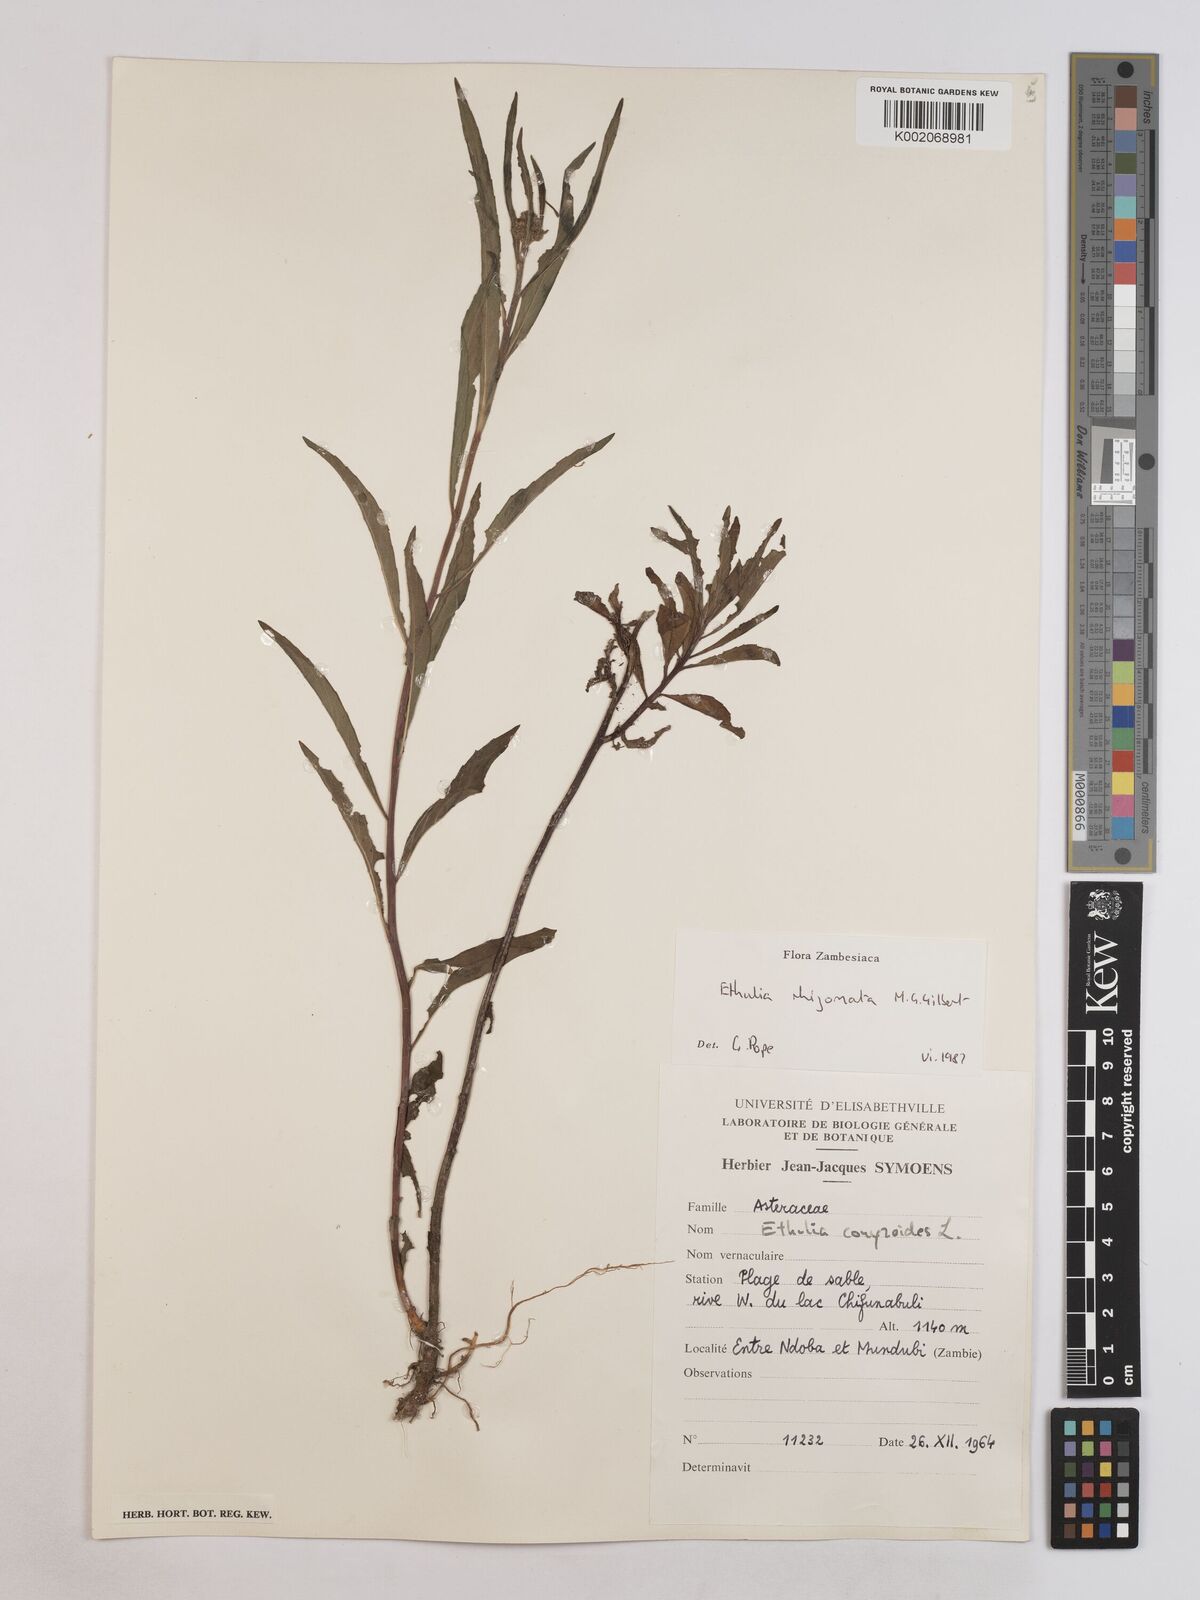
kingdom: Plantae
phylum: Tracheophyta
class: Magnoliopsida
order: Asterales
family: Asteraceae
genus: Ethulia
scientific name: Ethulia rhizomata
